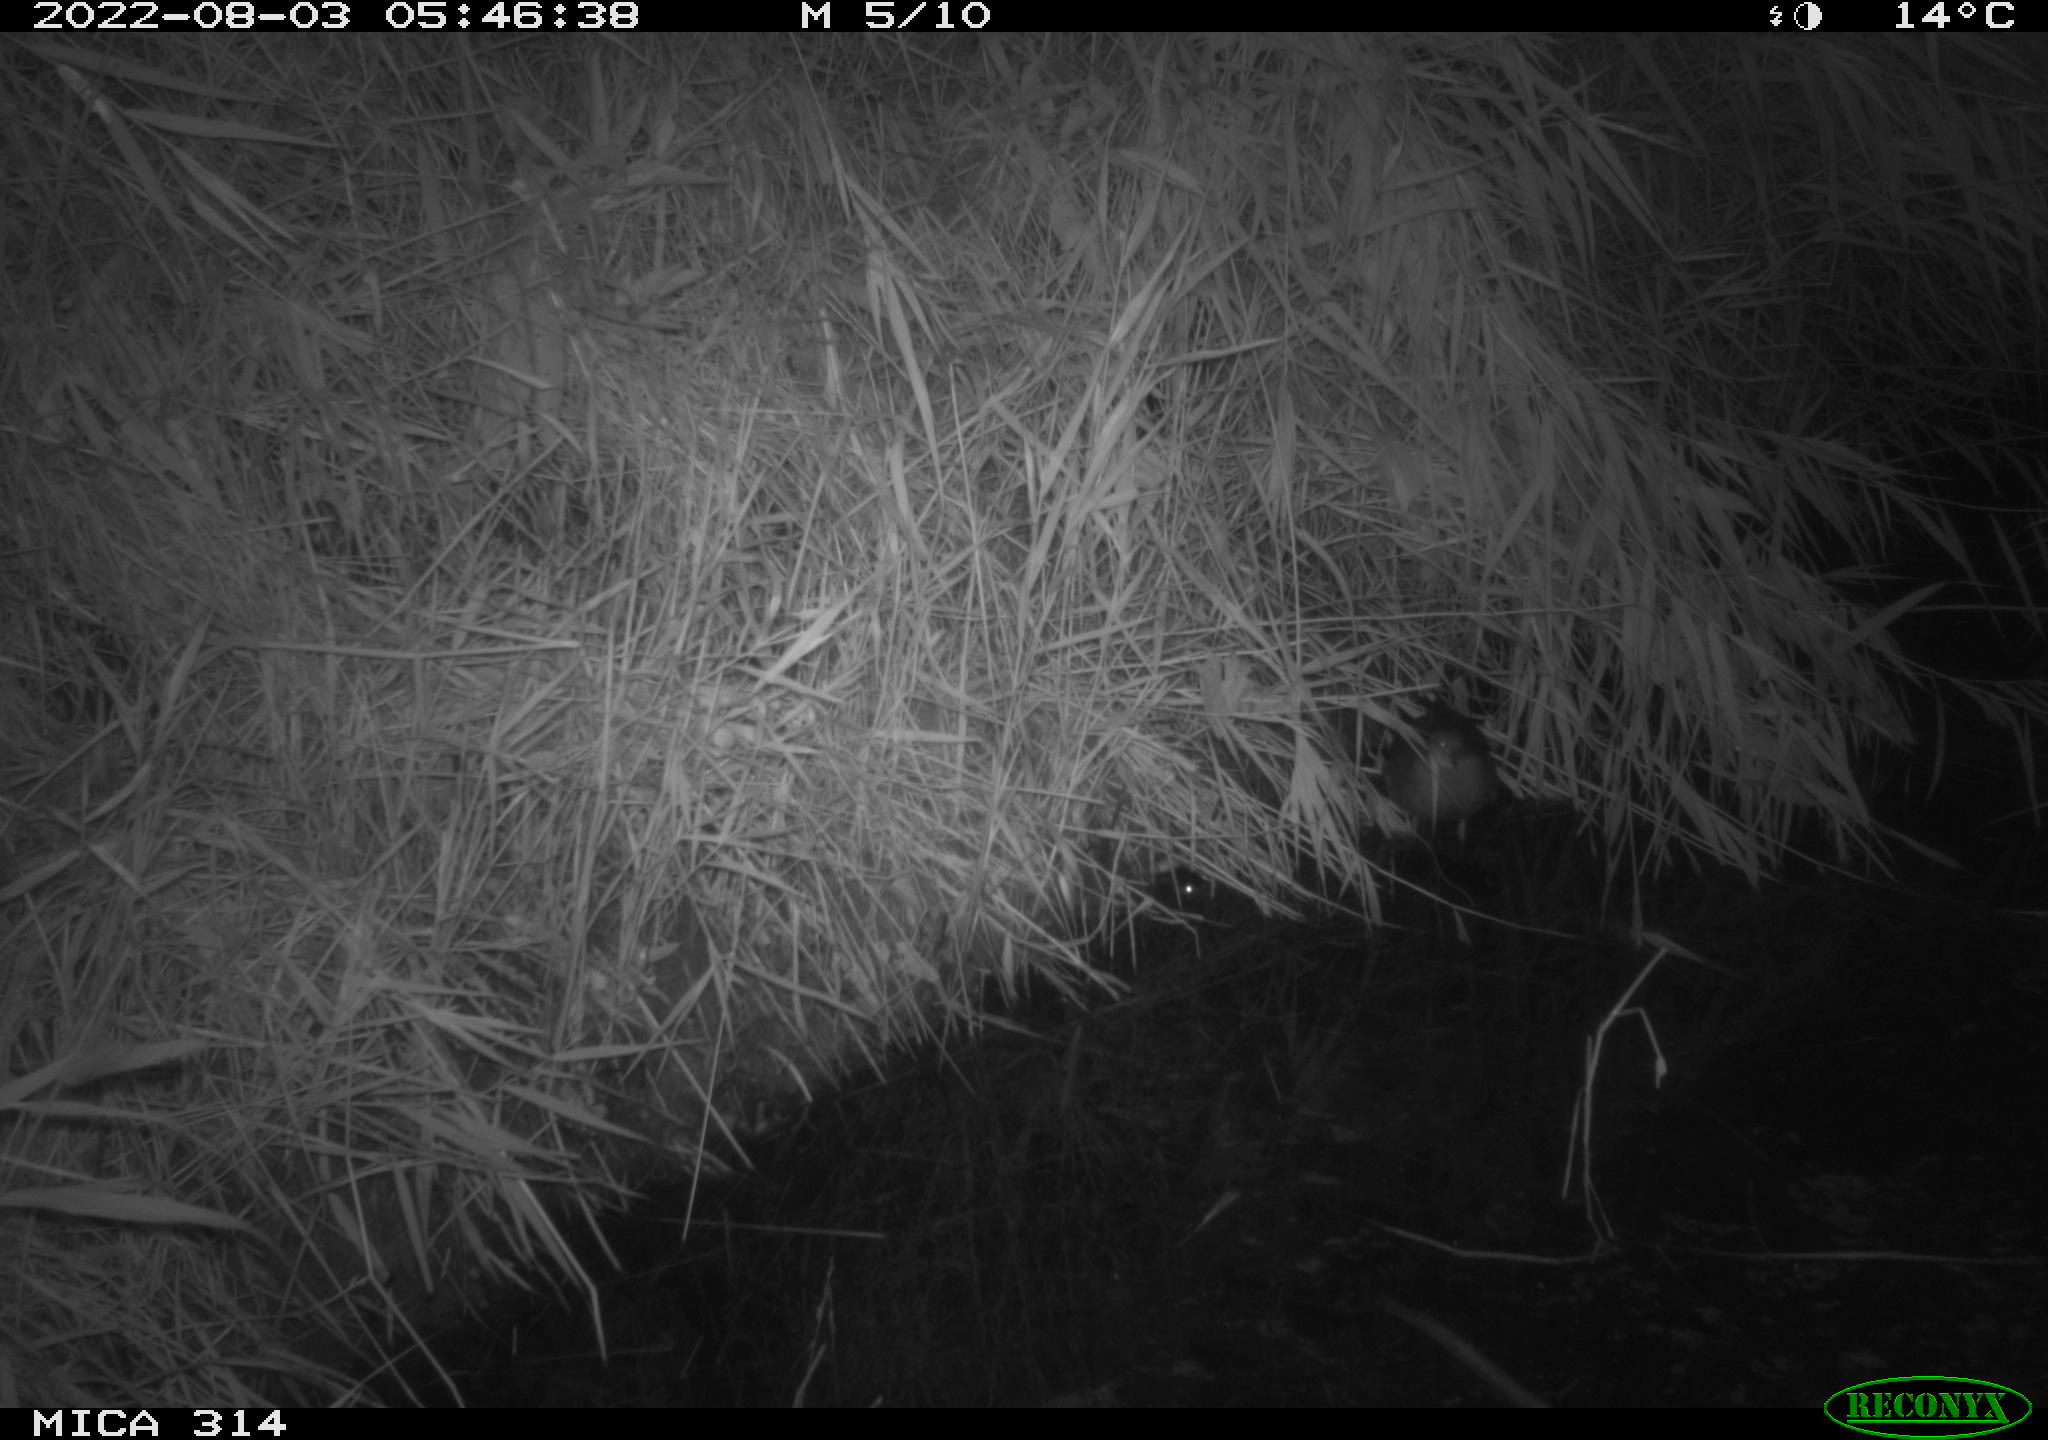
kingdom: Animalia
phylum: Chordata
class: Aves
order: Gruiformes
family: Rallidae
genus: Gallinula
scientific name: Gallinula chloropus
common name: Common moorhen
